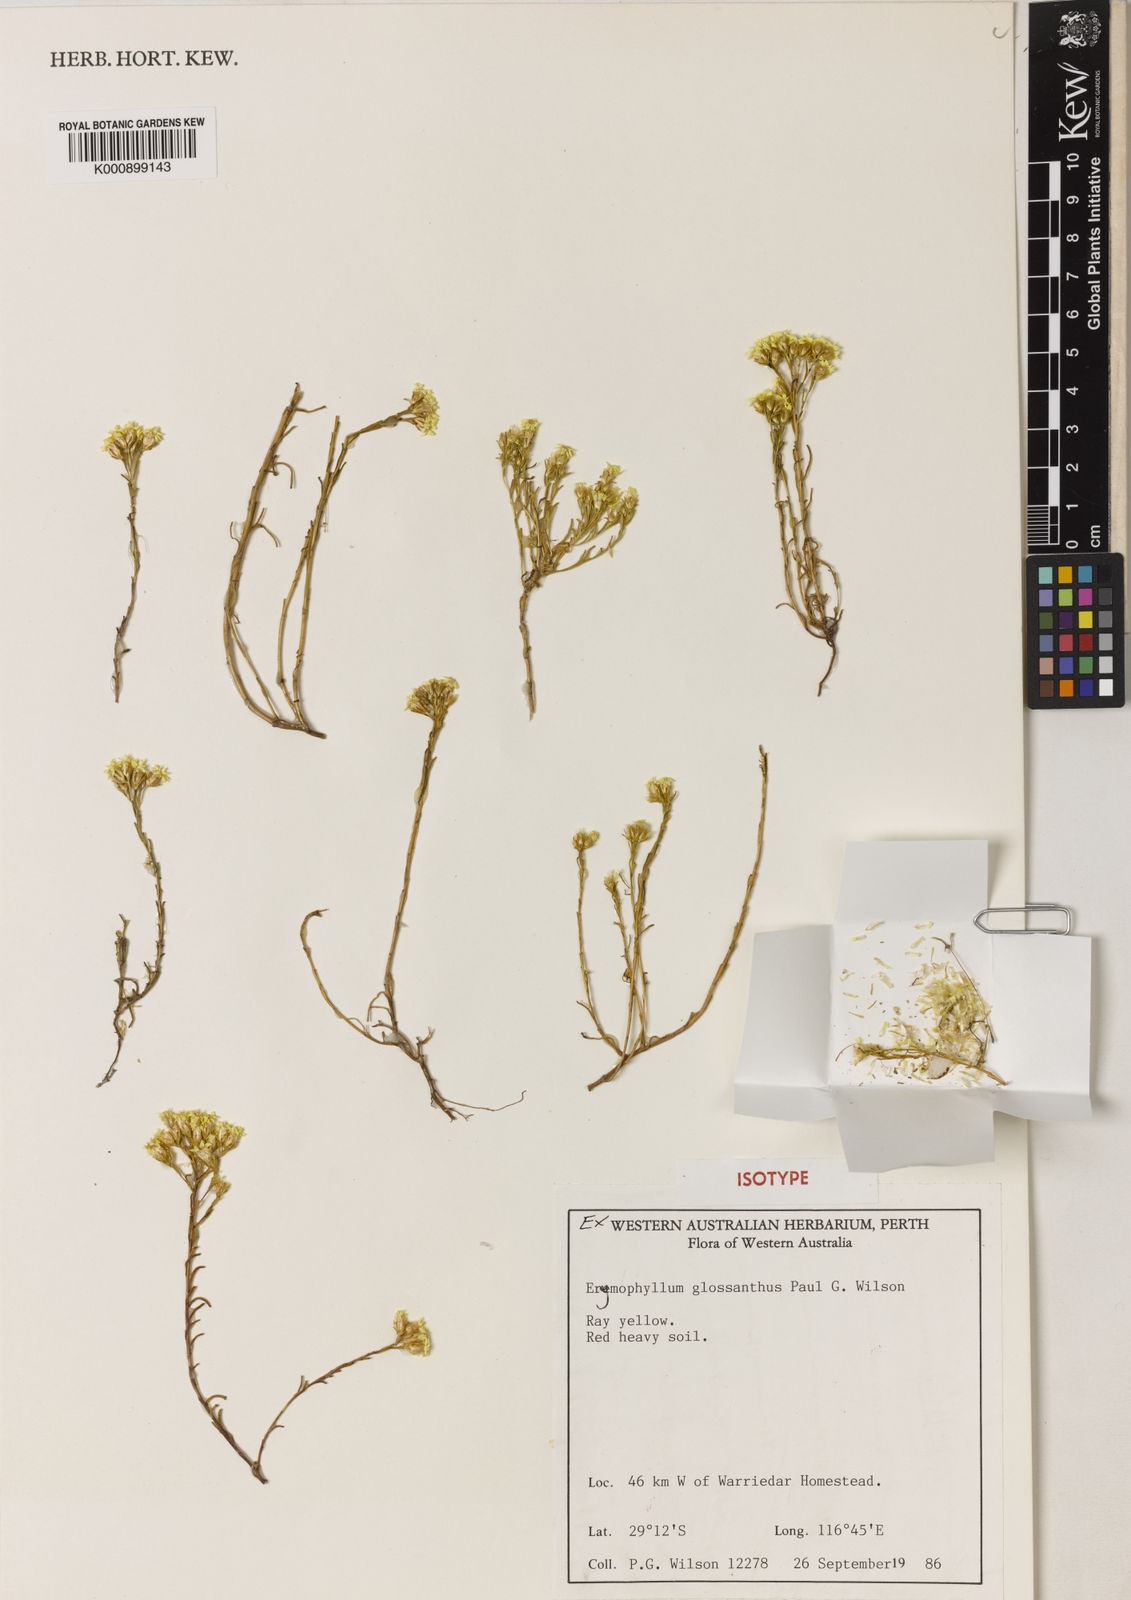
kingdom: Plantae
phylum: Tracheophyta
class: Magnoliopsida
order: Asterales
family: Asteraceae
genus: Erymophyllum
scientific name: Erymophyllum glossanthus
